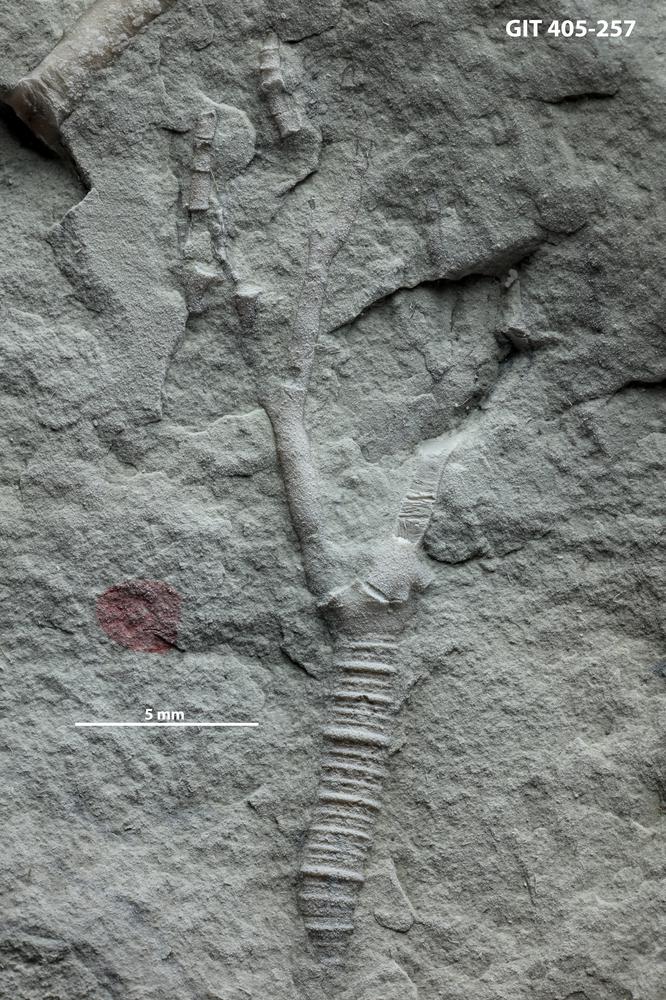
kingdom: Animalia
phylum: Echinodermata
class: Crinoidea
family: Iocrinidae
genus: Tartucrinus
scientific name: Tartucrinus
